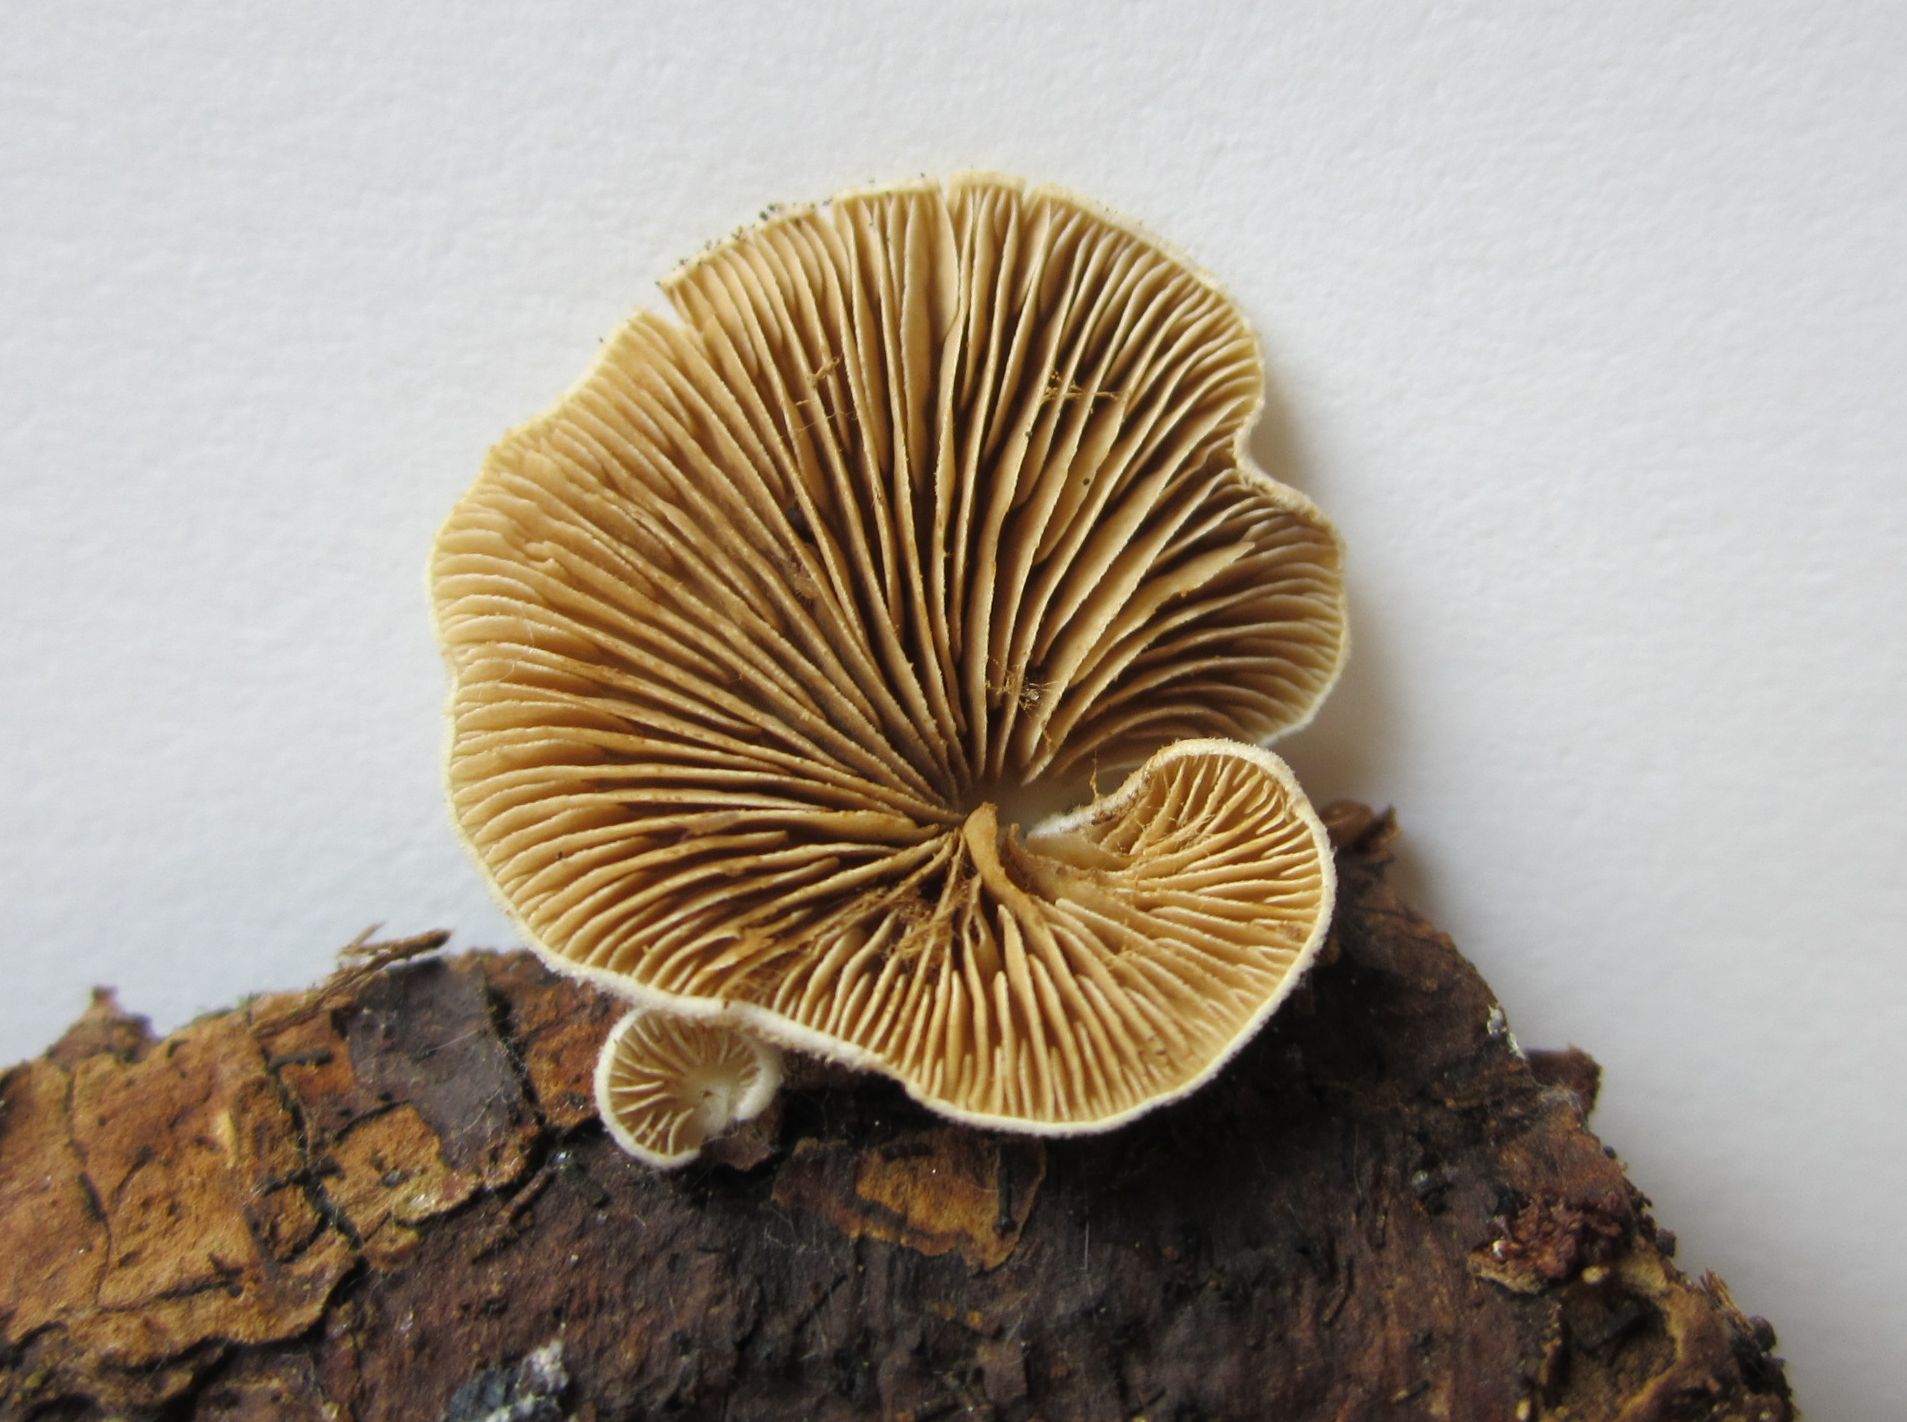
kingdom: Fungi
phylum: Basidiomycota
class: Agaricomycetes
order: Agaricales
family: Crepidotaceae
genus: Crepidotus
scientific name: Crepidotus caspari
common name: Lundells muslingesvamp
